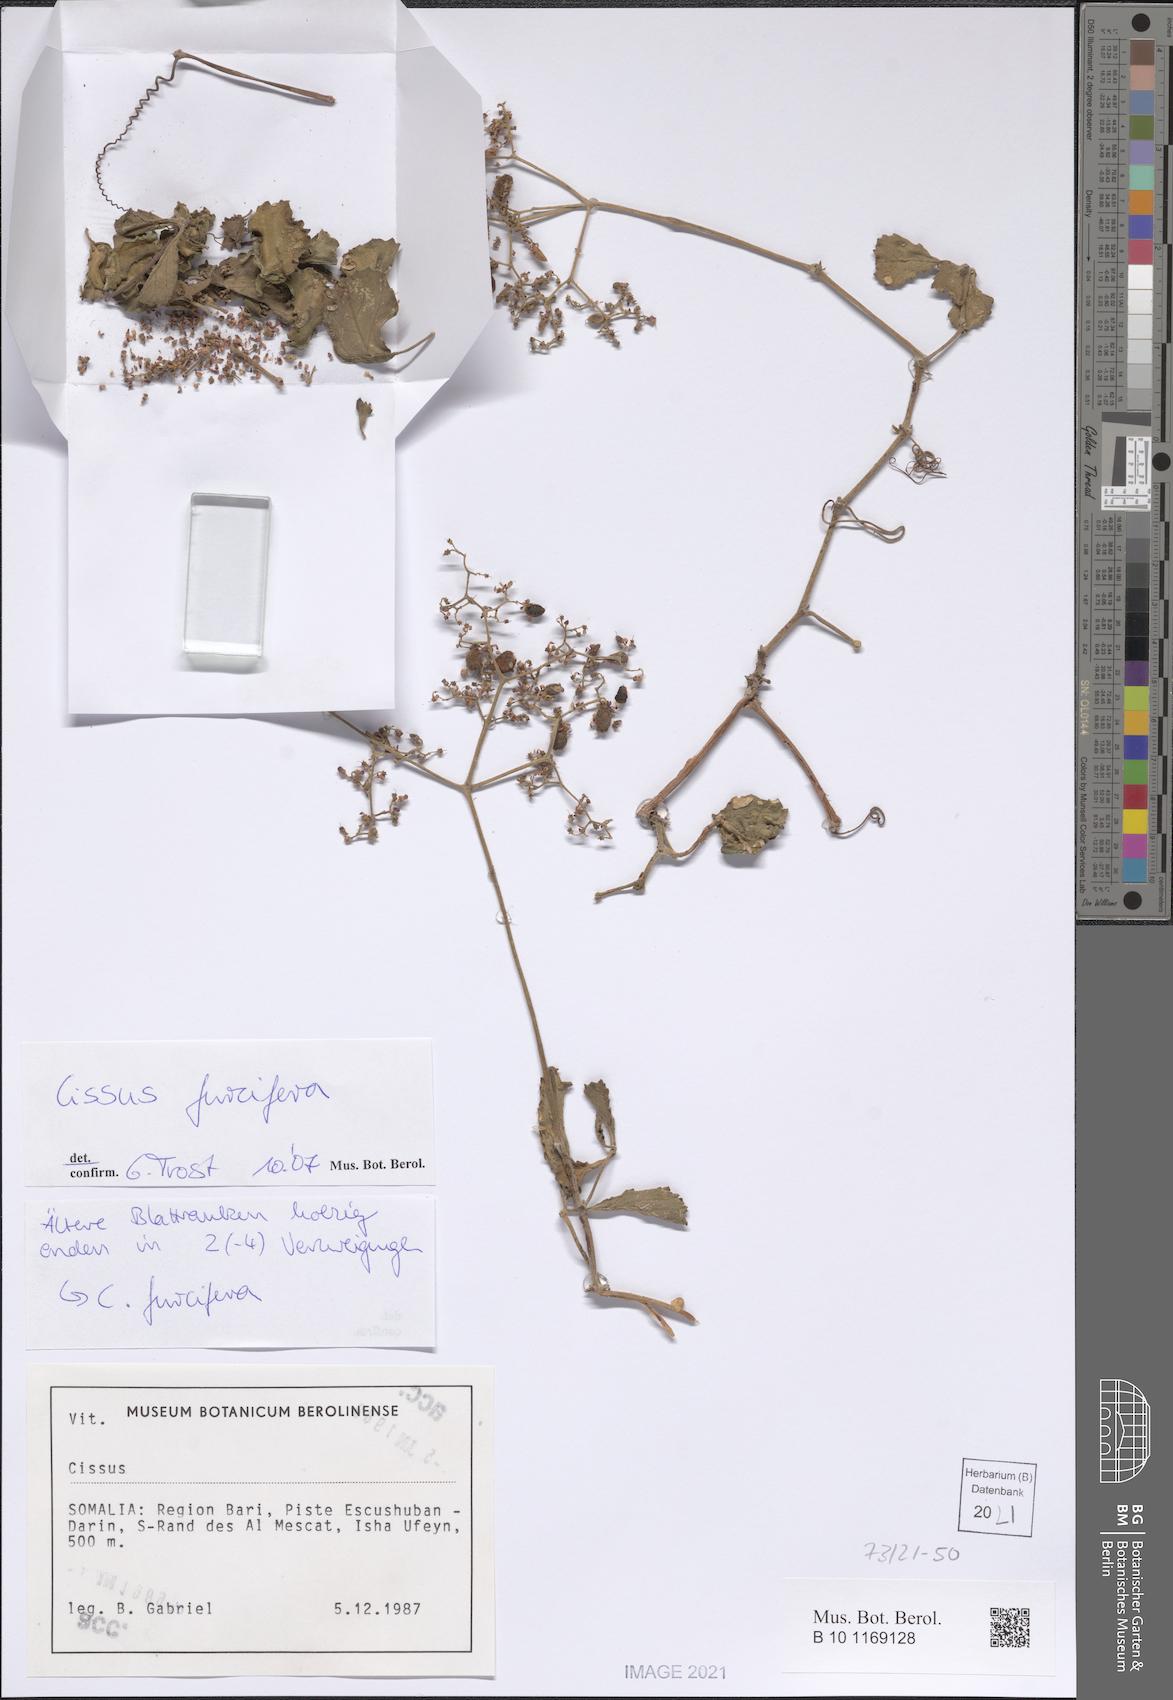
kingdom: Plantae
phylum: Tracheophyta
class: Magnoliopsida
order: Vitales
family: Vitaceae
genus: Cissus
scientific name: Cissus furcifera
